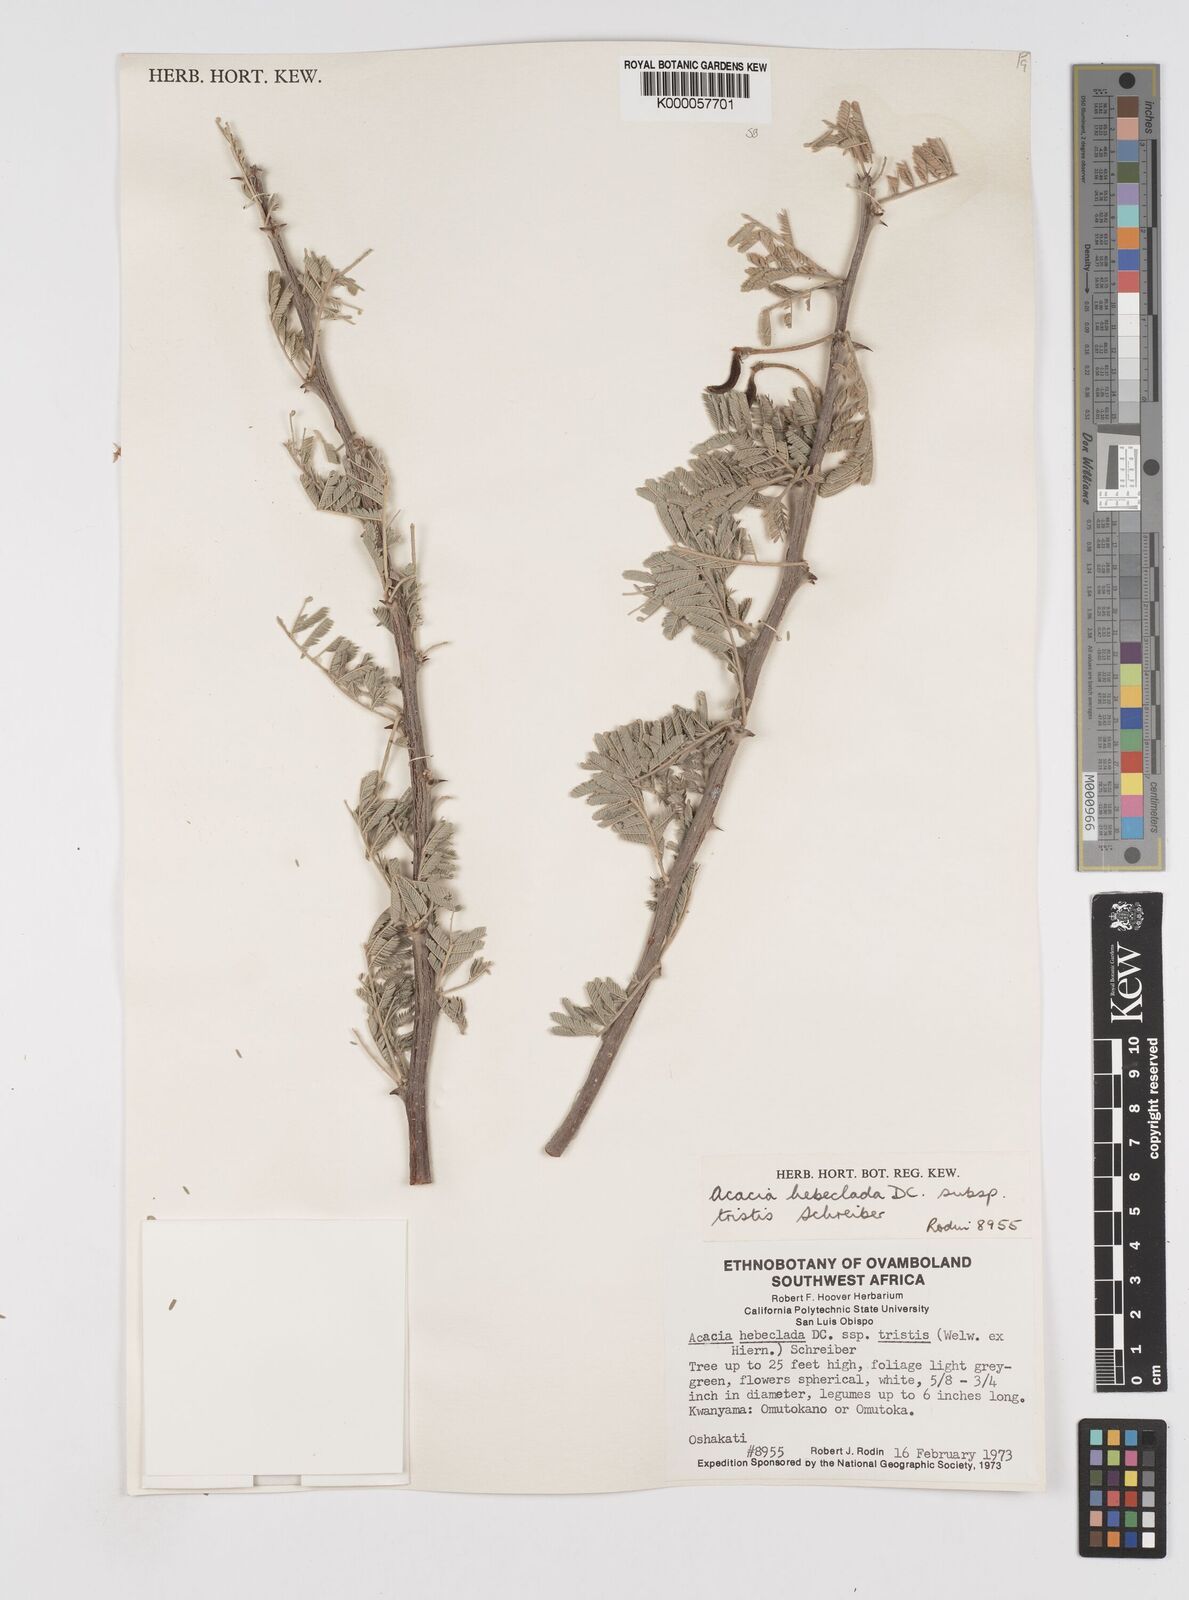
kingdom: Plantae
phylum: Tracheophyta
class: Magnoliopsida
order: Fabales
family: Fabaceae
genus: Vachellia
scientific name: Vachellia hebeclada
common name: Candle thorn
